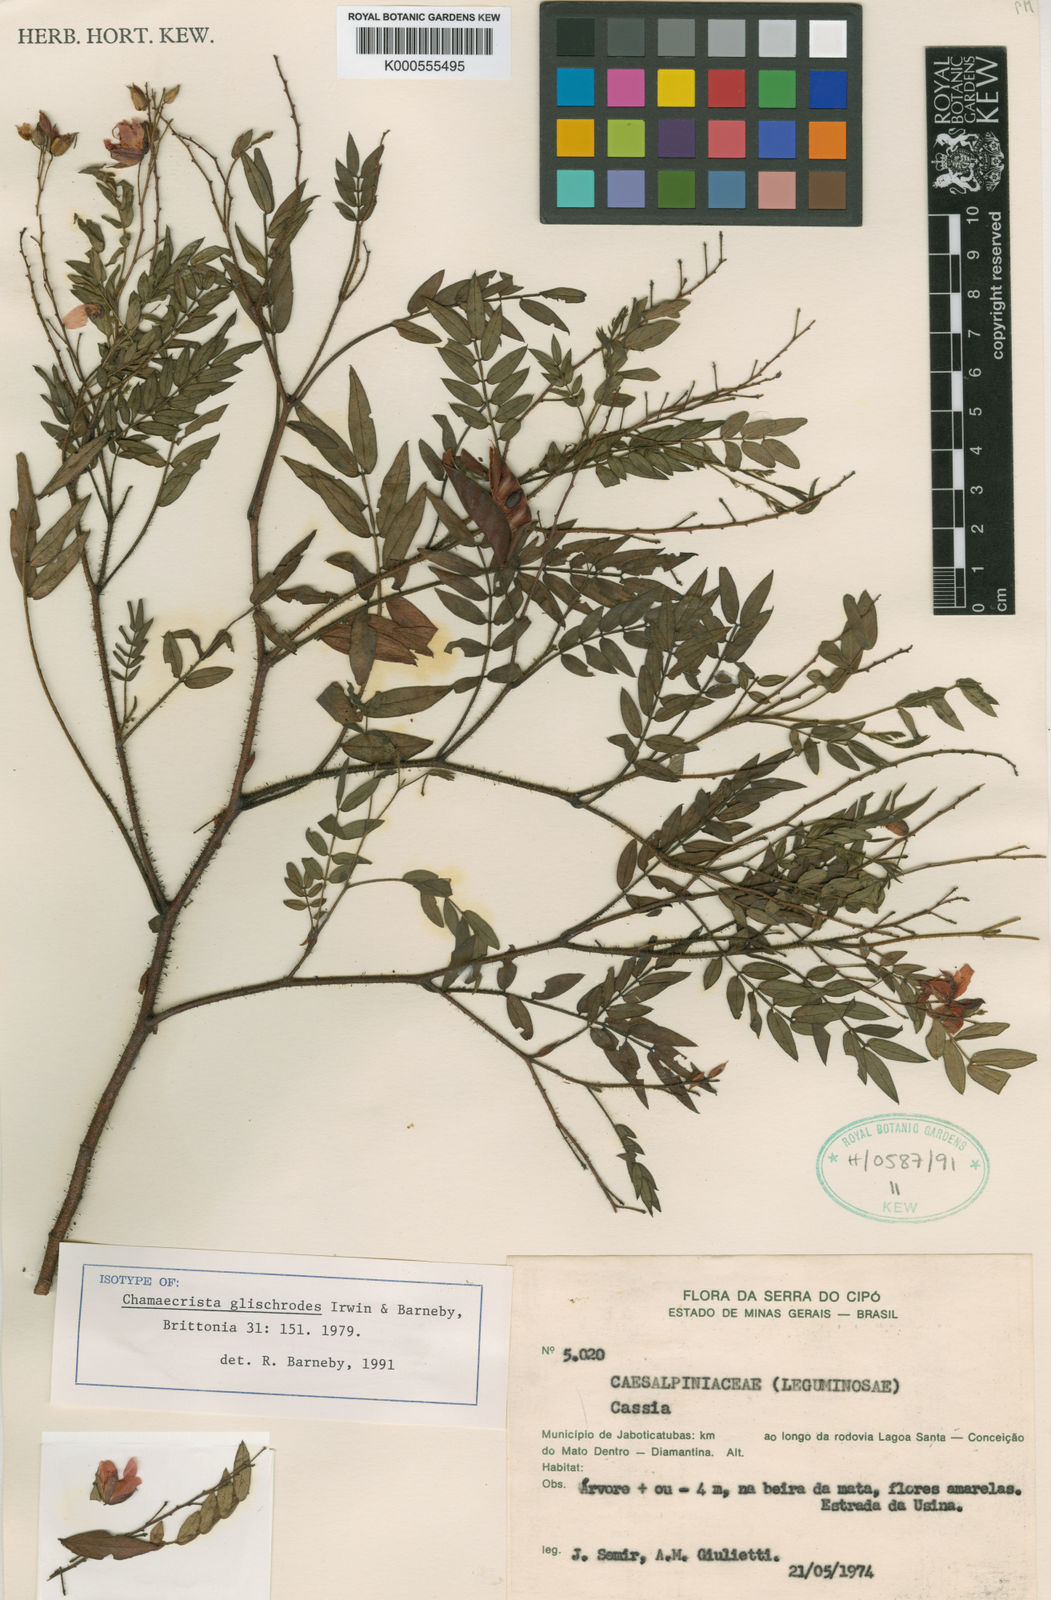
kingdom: Plantae
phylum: Tracheophyta
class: Magnoliopsida
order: Fabales
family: Fabaceae
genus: Chamaecrista
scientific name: Chamaecrista glischrodes
